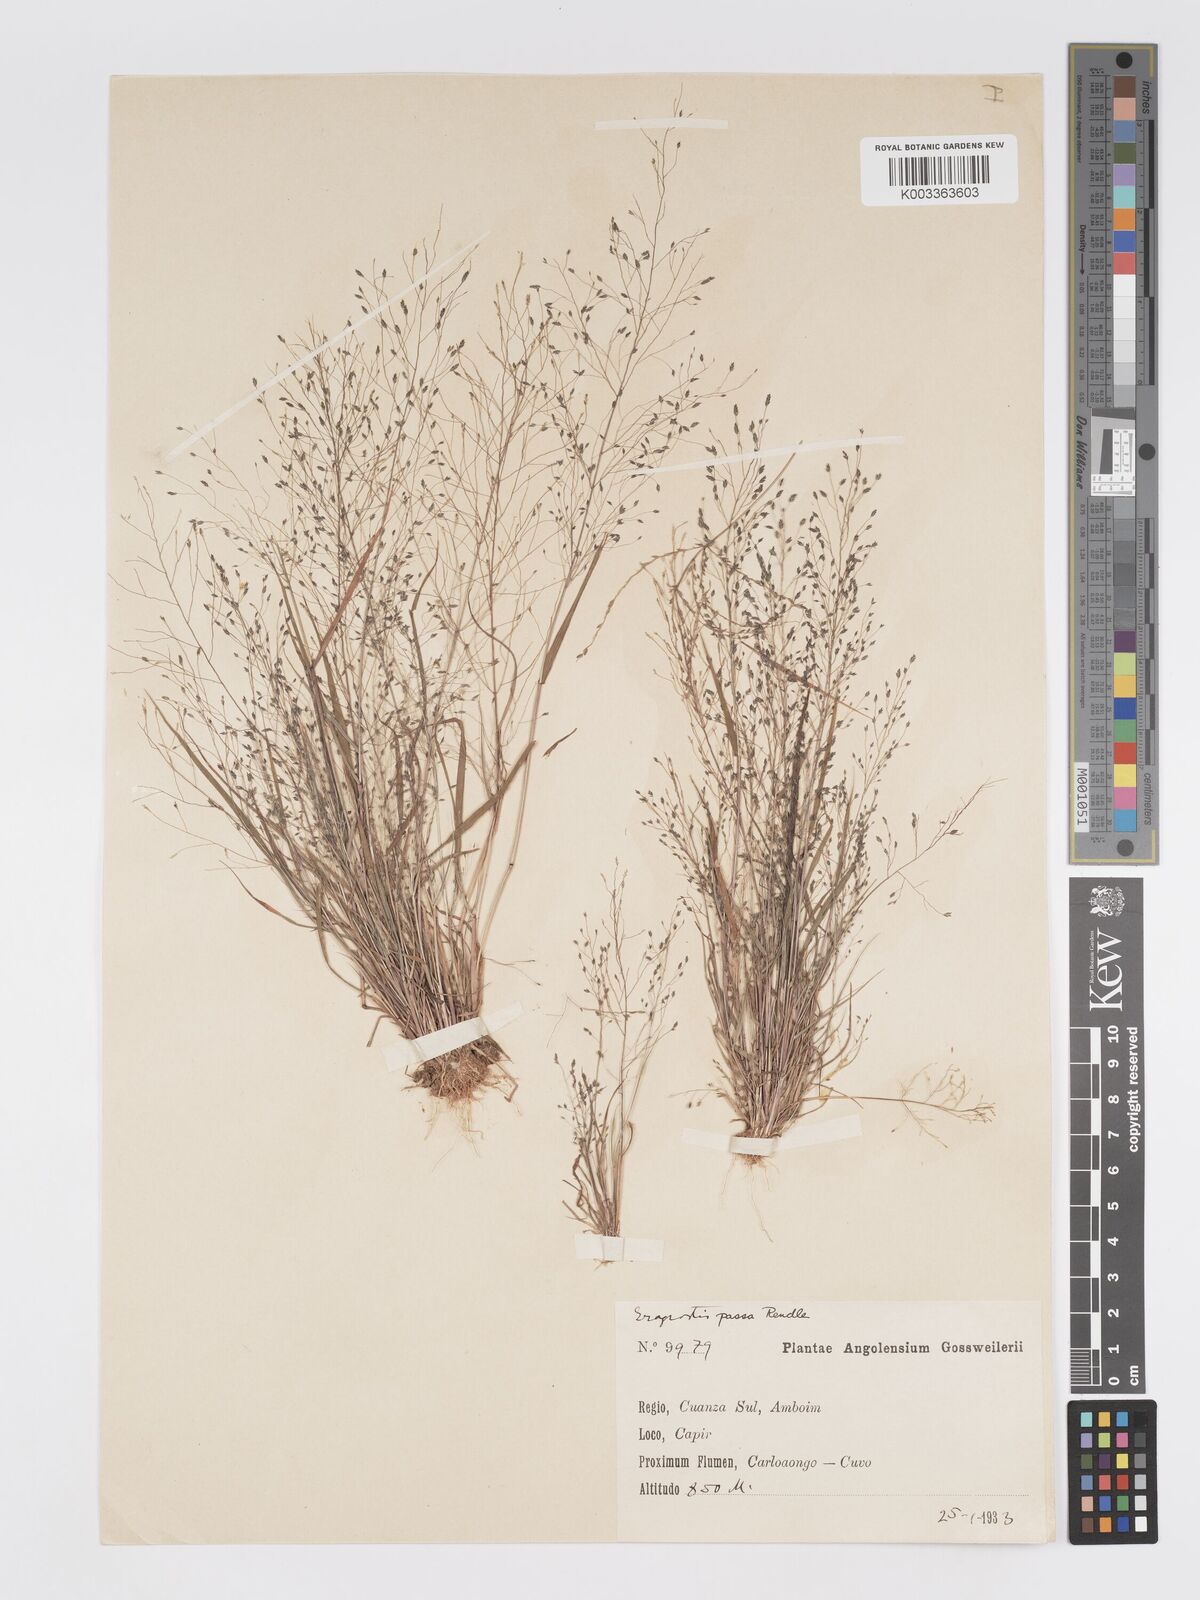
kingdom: Plantae
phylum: Tracheophyta
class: Liliopsida
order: Poales
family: Poaceae
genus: Eragrostis
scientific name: Eragrostis macilenta
